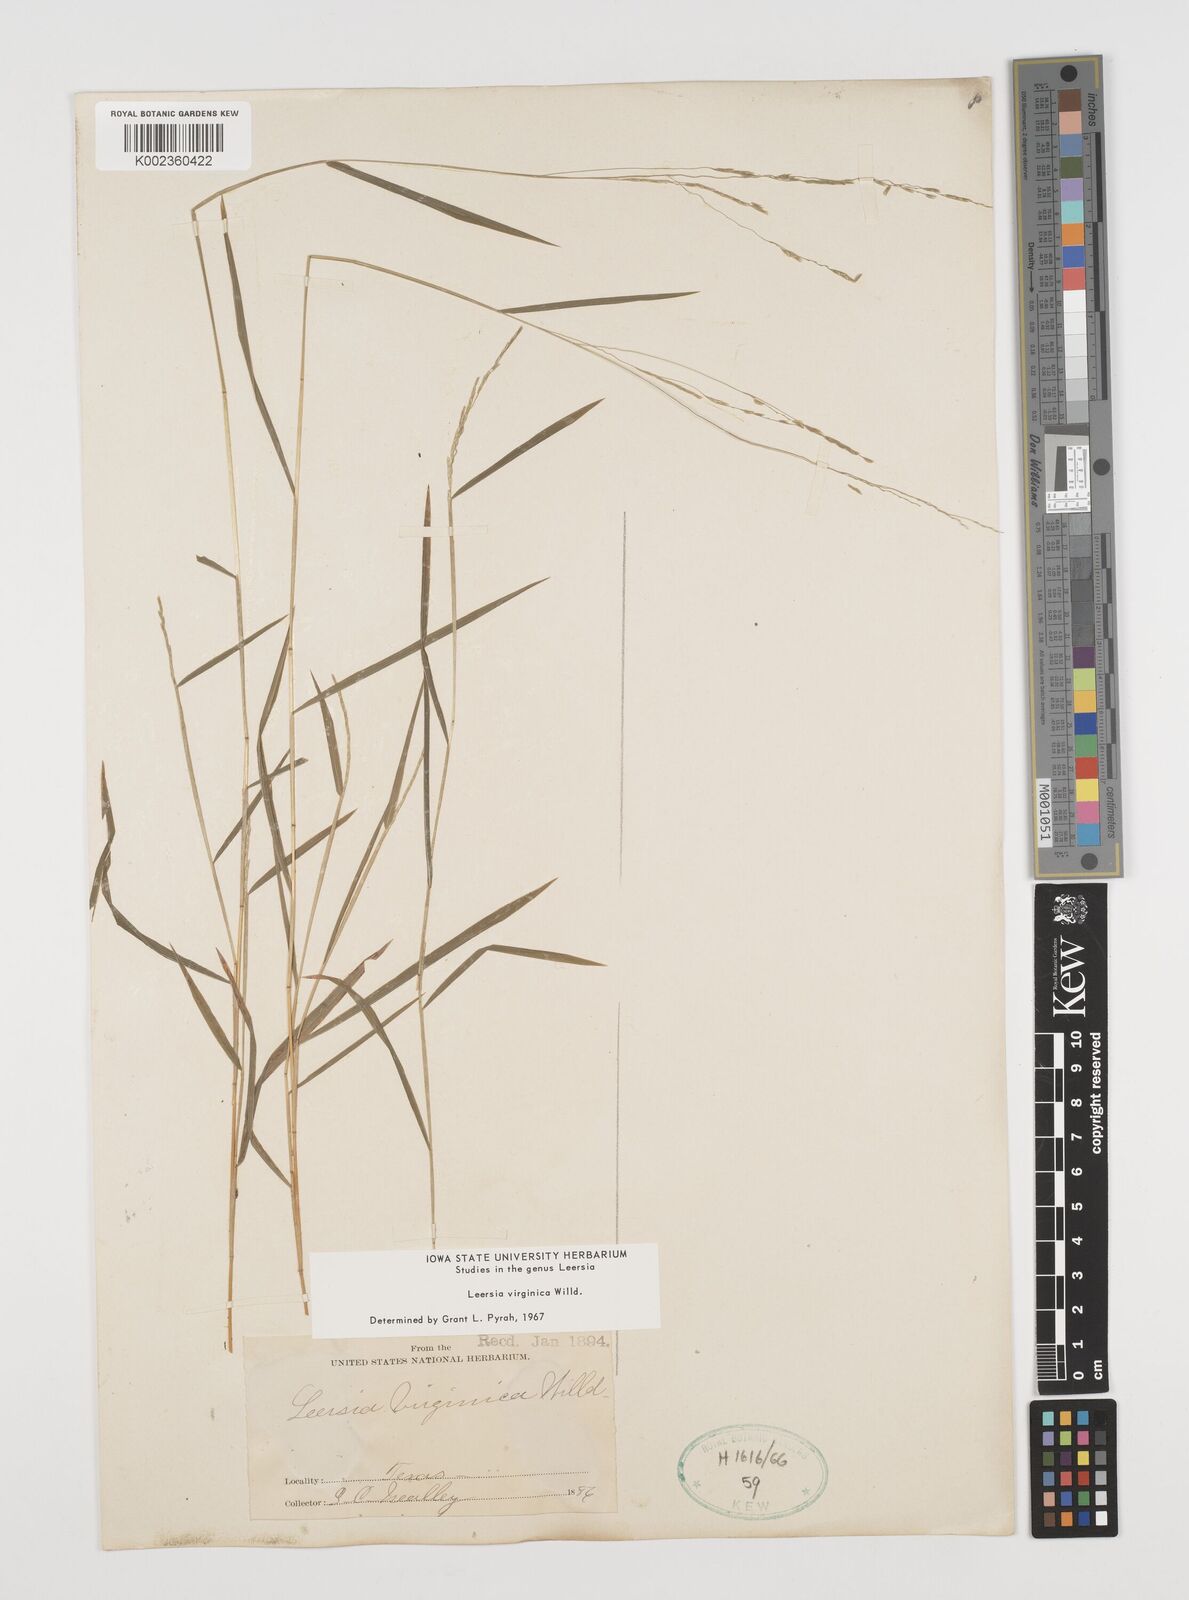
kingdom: Plantae
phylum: Tracheophyta
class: Liliopsida
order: Poales
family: Poaceae
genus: Leersia
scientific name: Leersia virginica
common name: White cutgrass
